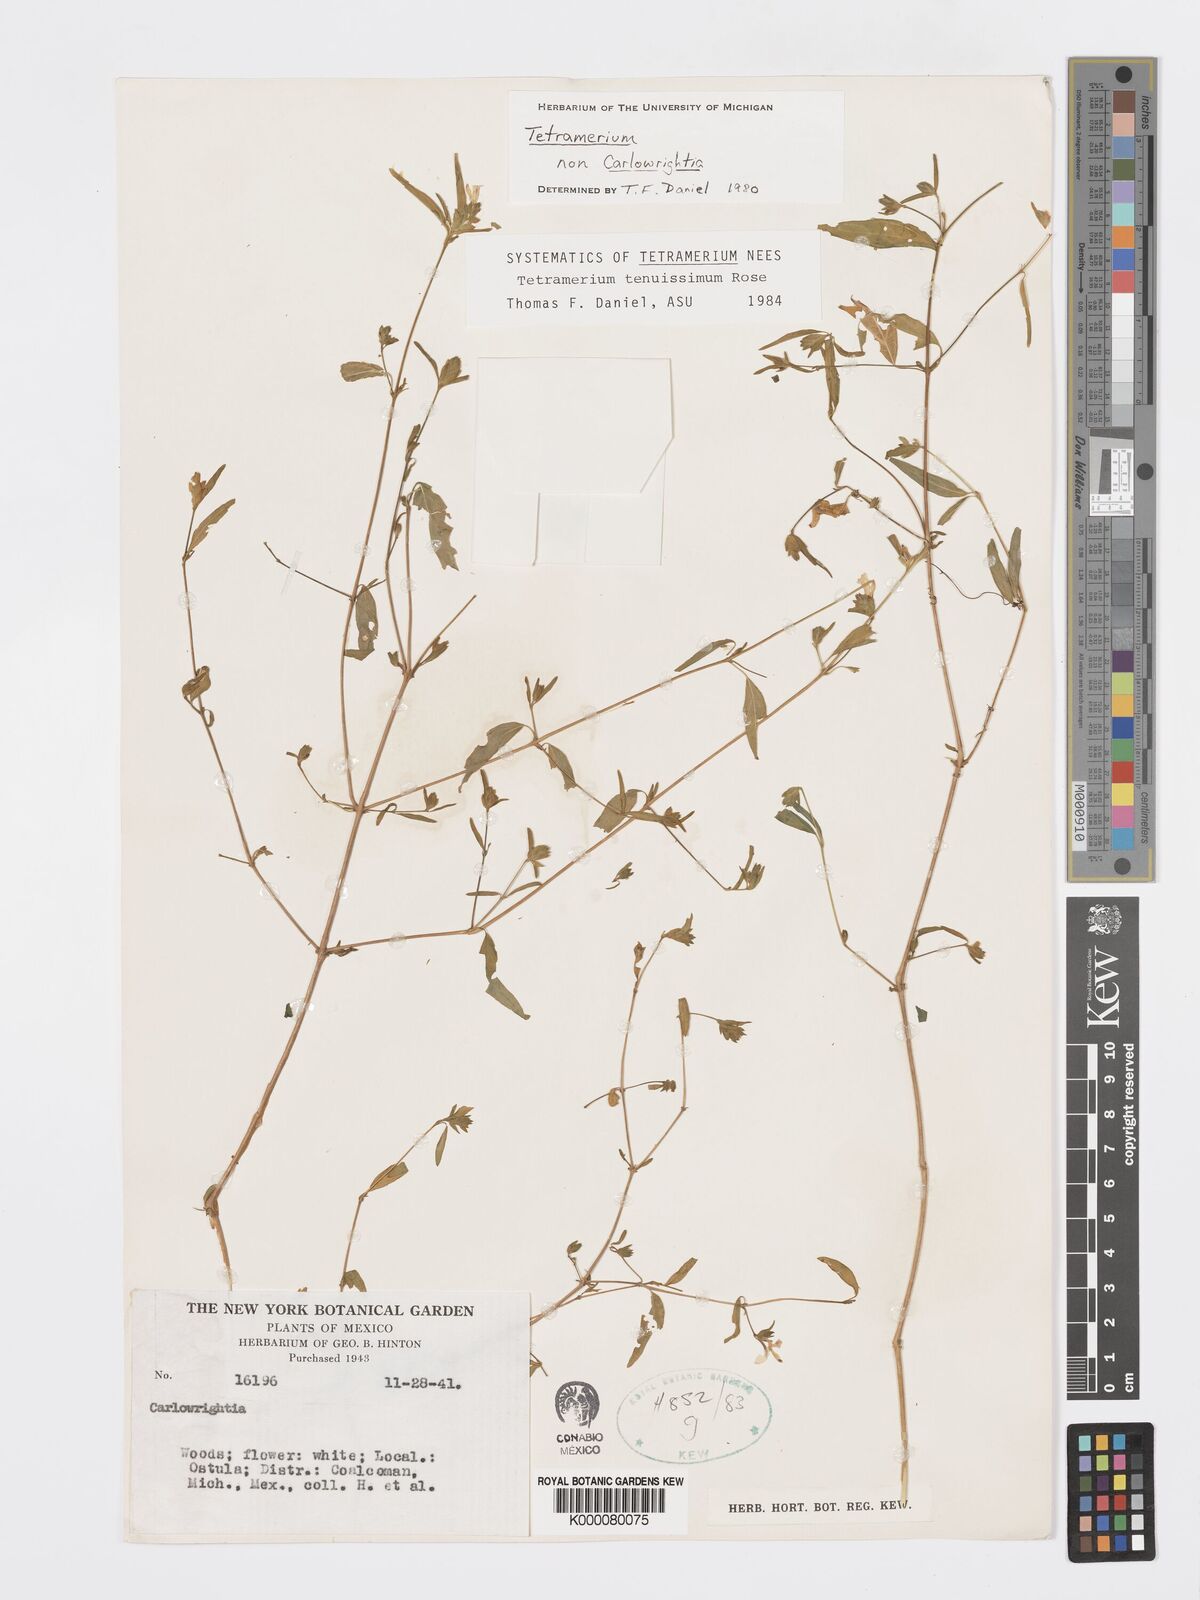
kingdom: Plantae
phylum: Tracheophyta
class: Magnoliopsida
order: Lamiales
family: Acanthaceae
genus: Tetramerium
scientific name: Tetramerium tenuissimum
